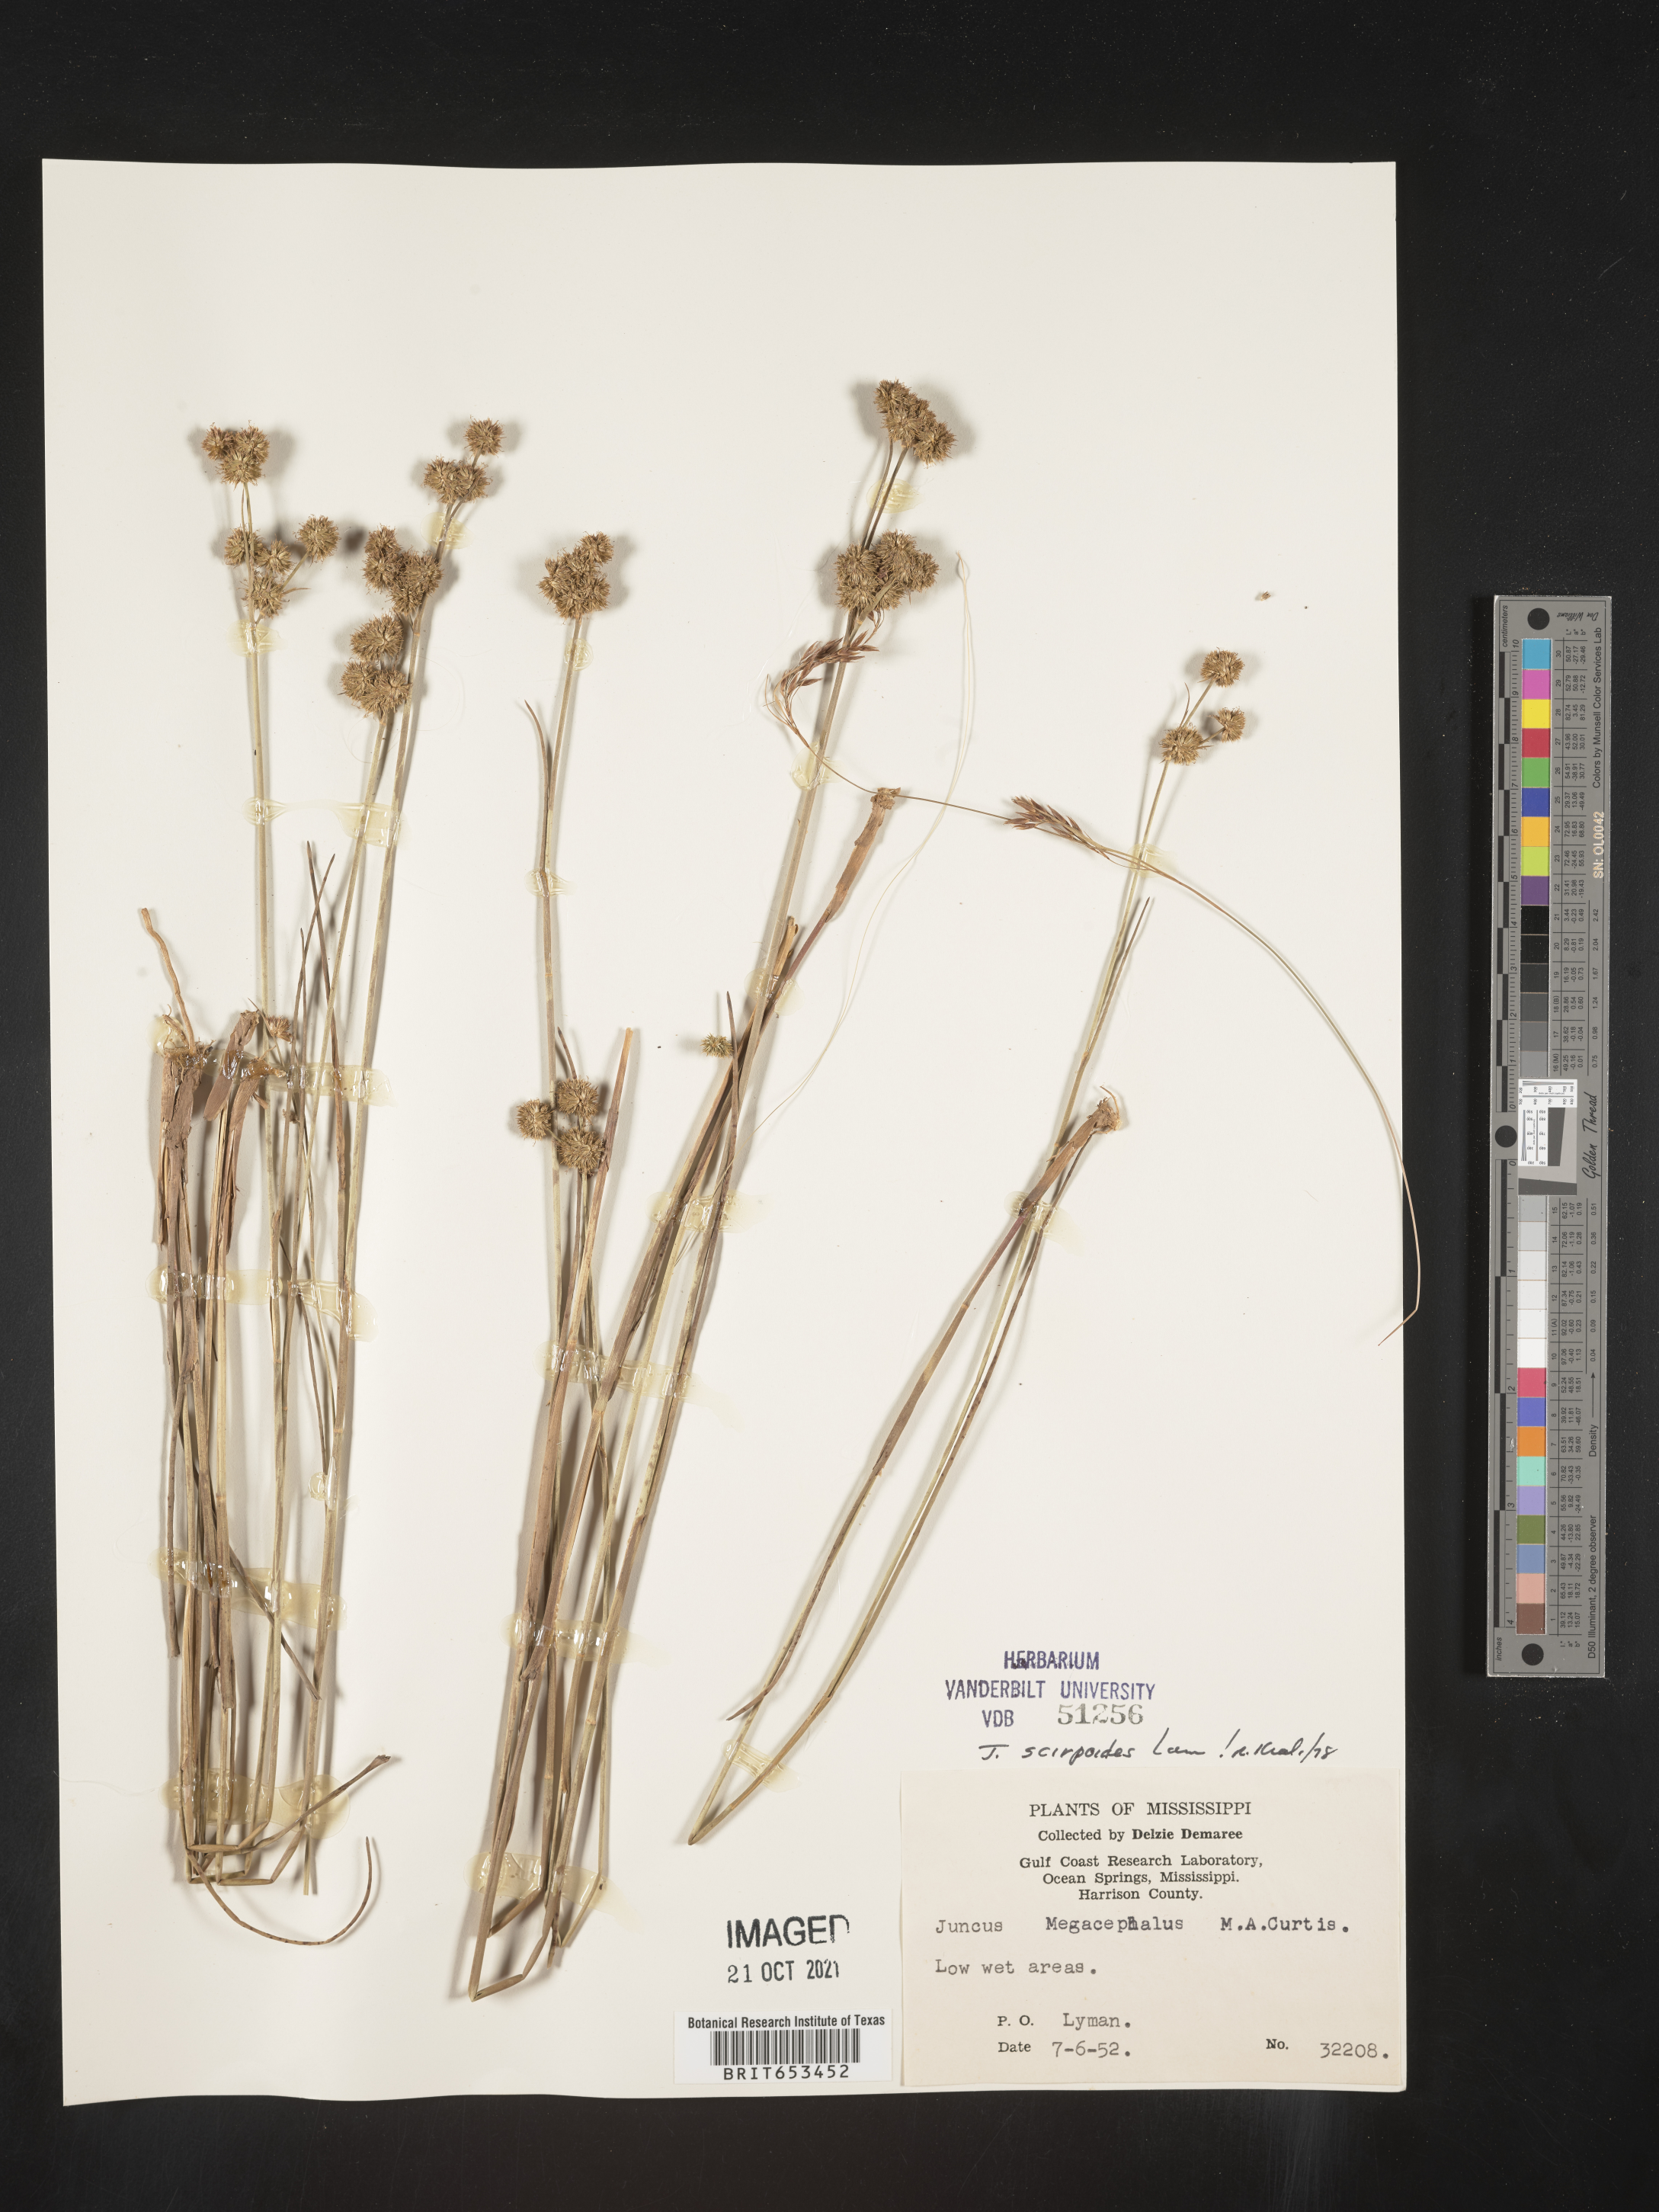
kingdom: Plantae
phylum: Tracheophyta
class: Liliopsida
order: Poales
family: Juncaceae
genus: Juncus
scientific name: Juncus scirpoides
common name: Needlepod rush
